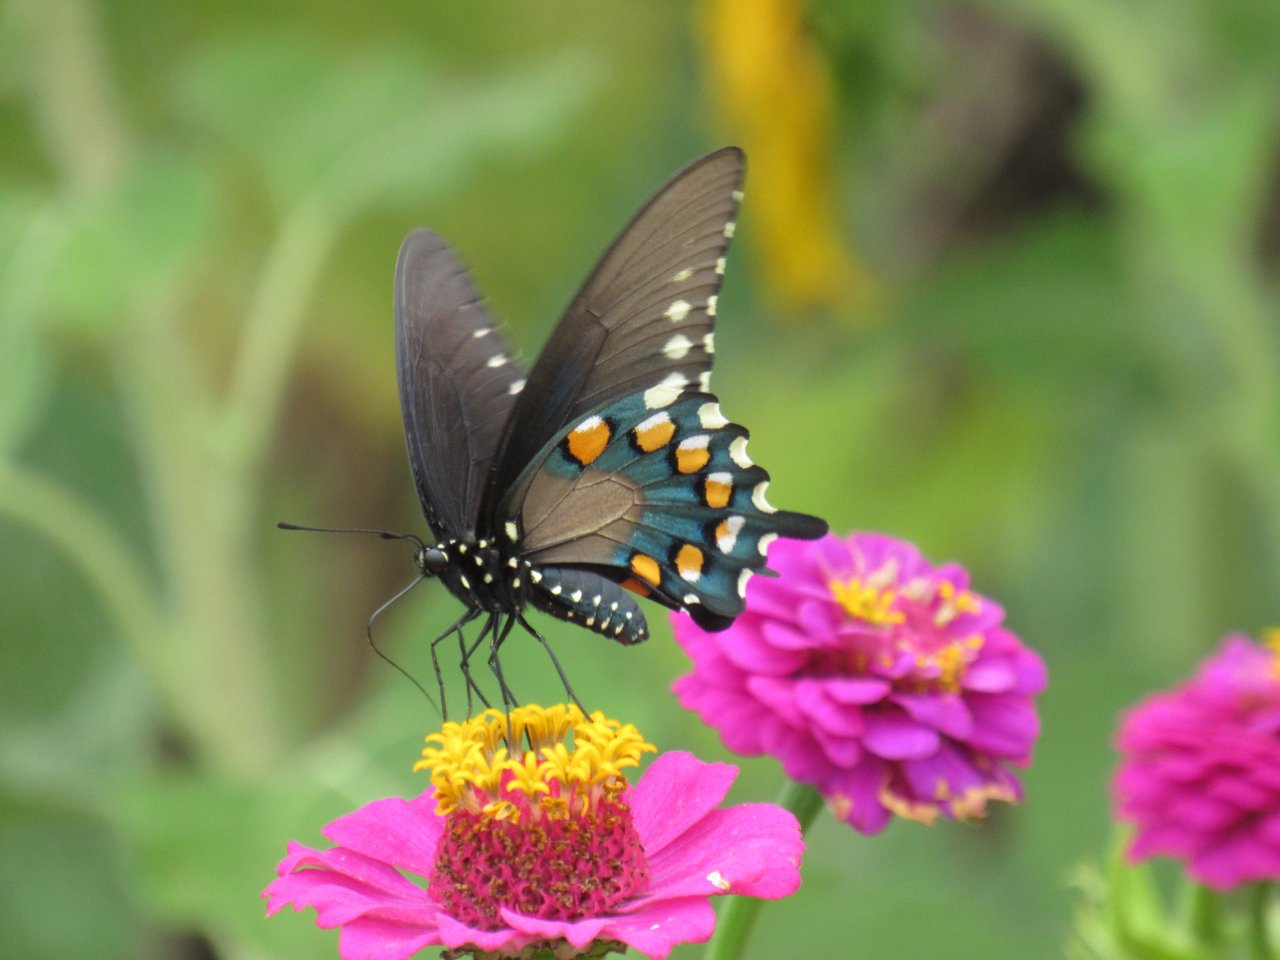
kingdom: Animalia
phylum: Arthropoda
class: Insecta
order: Lepidoptera
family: Papilionidae
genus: Battus
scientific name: Battus philenor
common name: Pipevine Swallowtail
